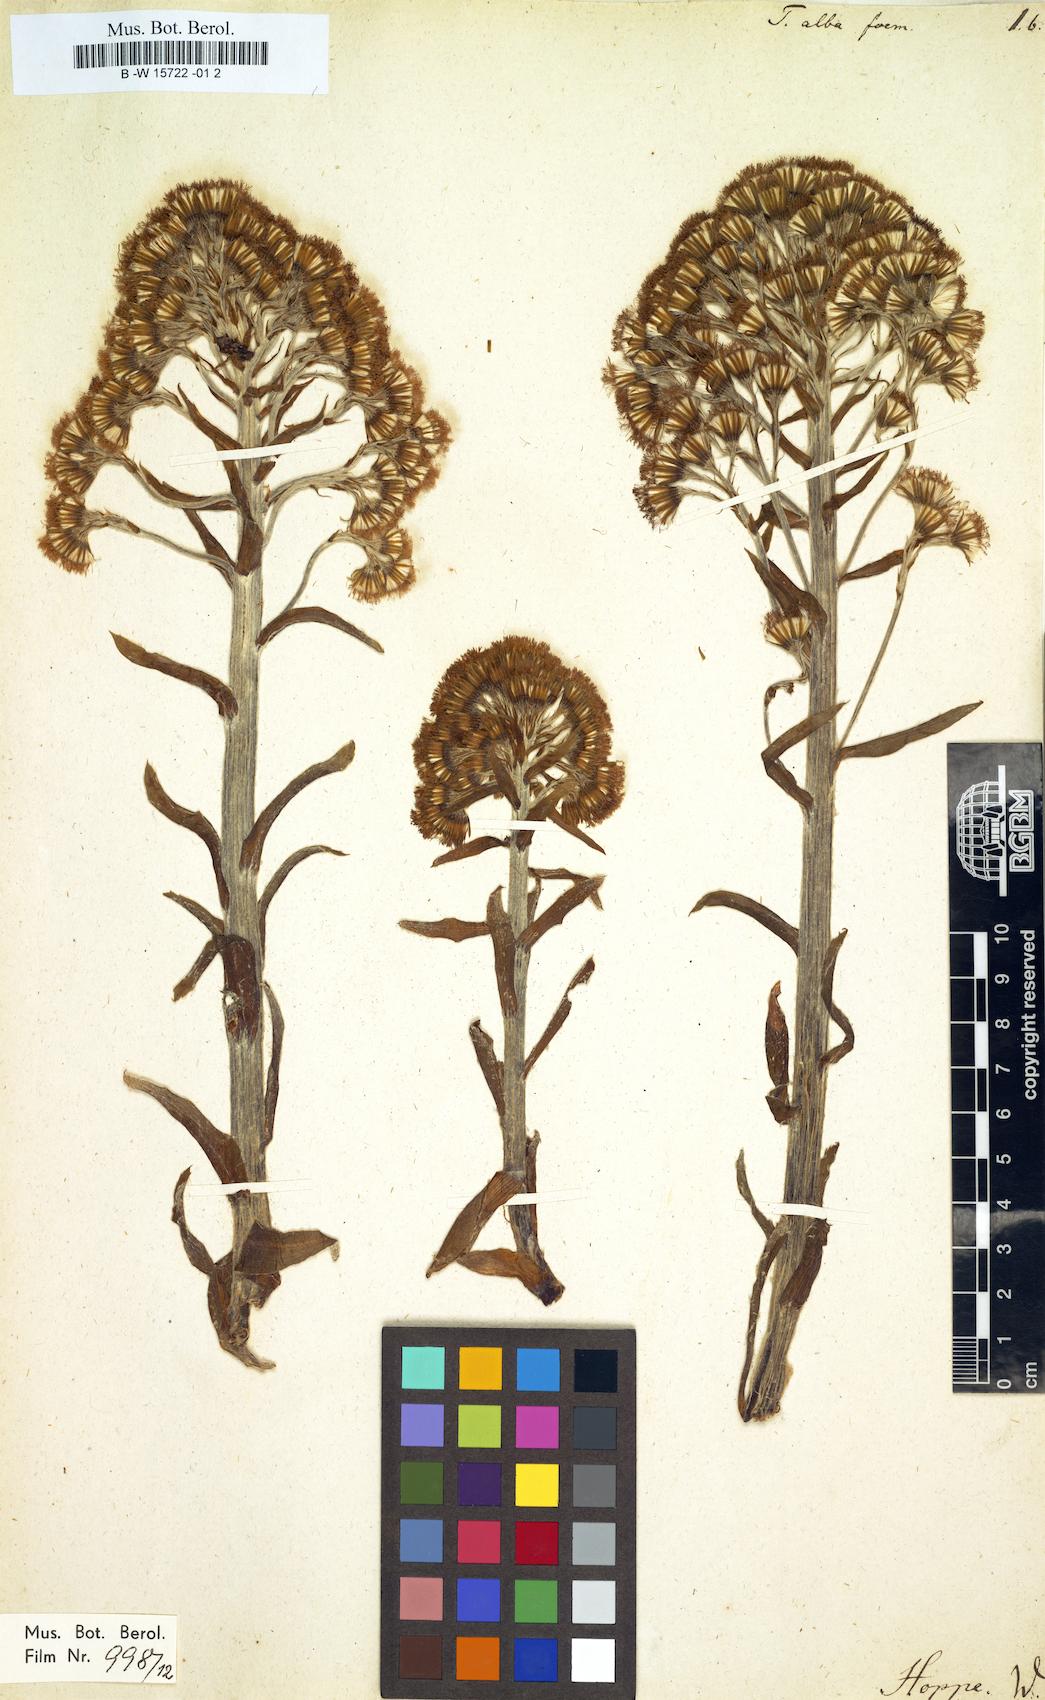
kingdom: Plantae
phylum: Tracheophyta
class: Magnoliopsida
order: Asterales
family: Asteraceae
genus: Petasites
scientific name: Petasites albus
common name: White butterbur
